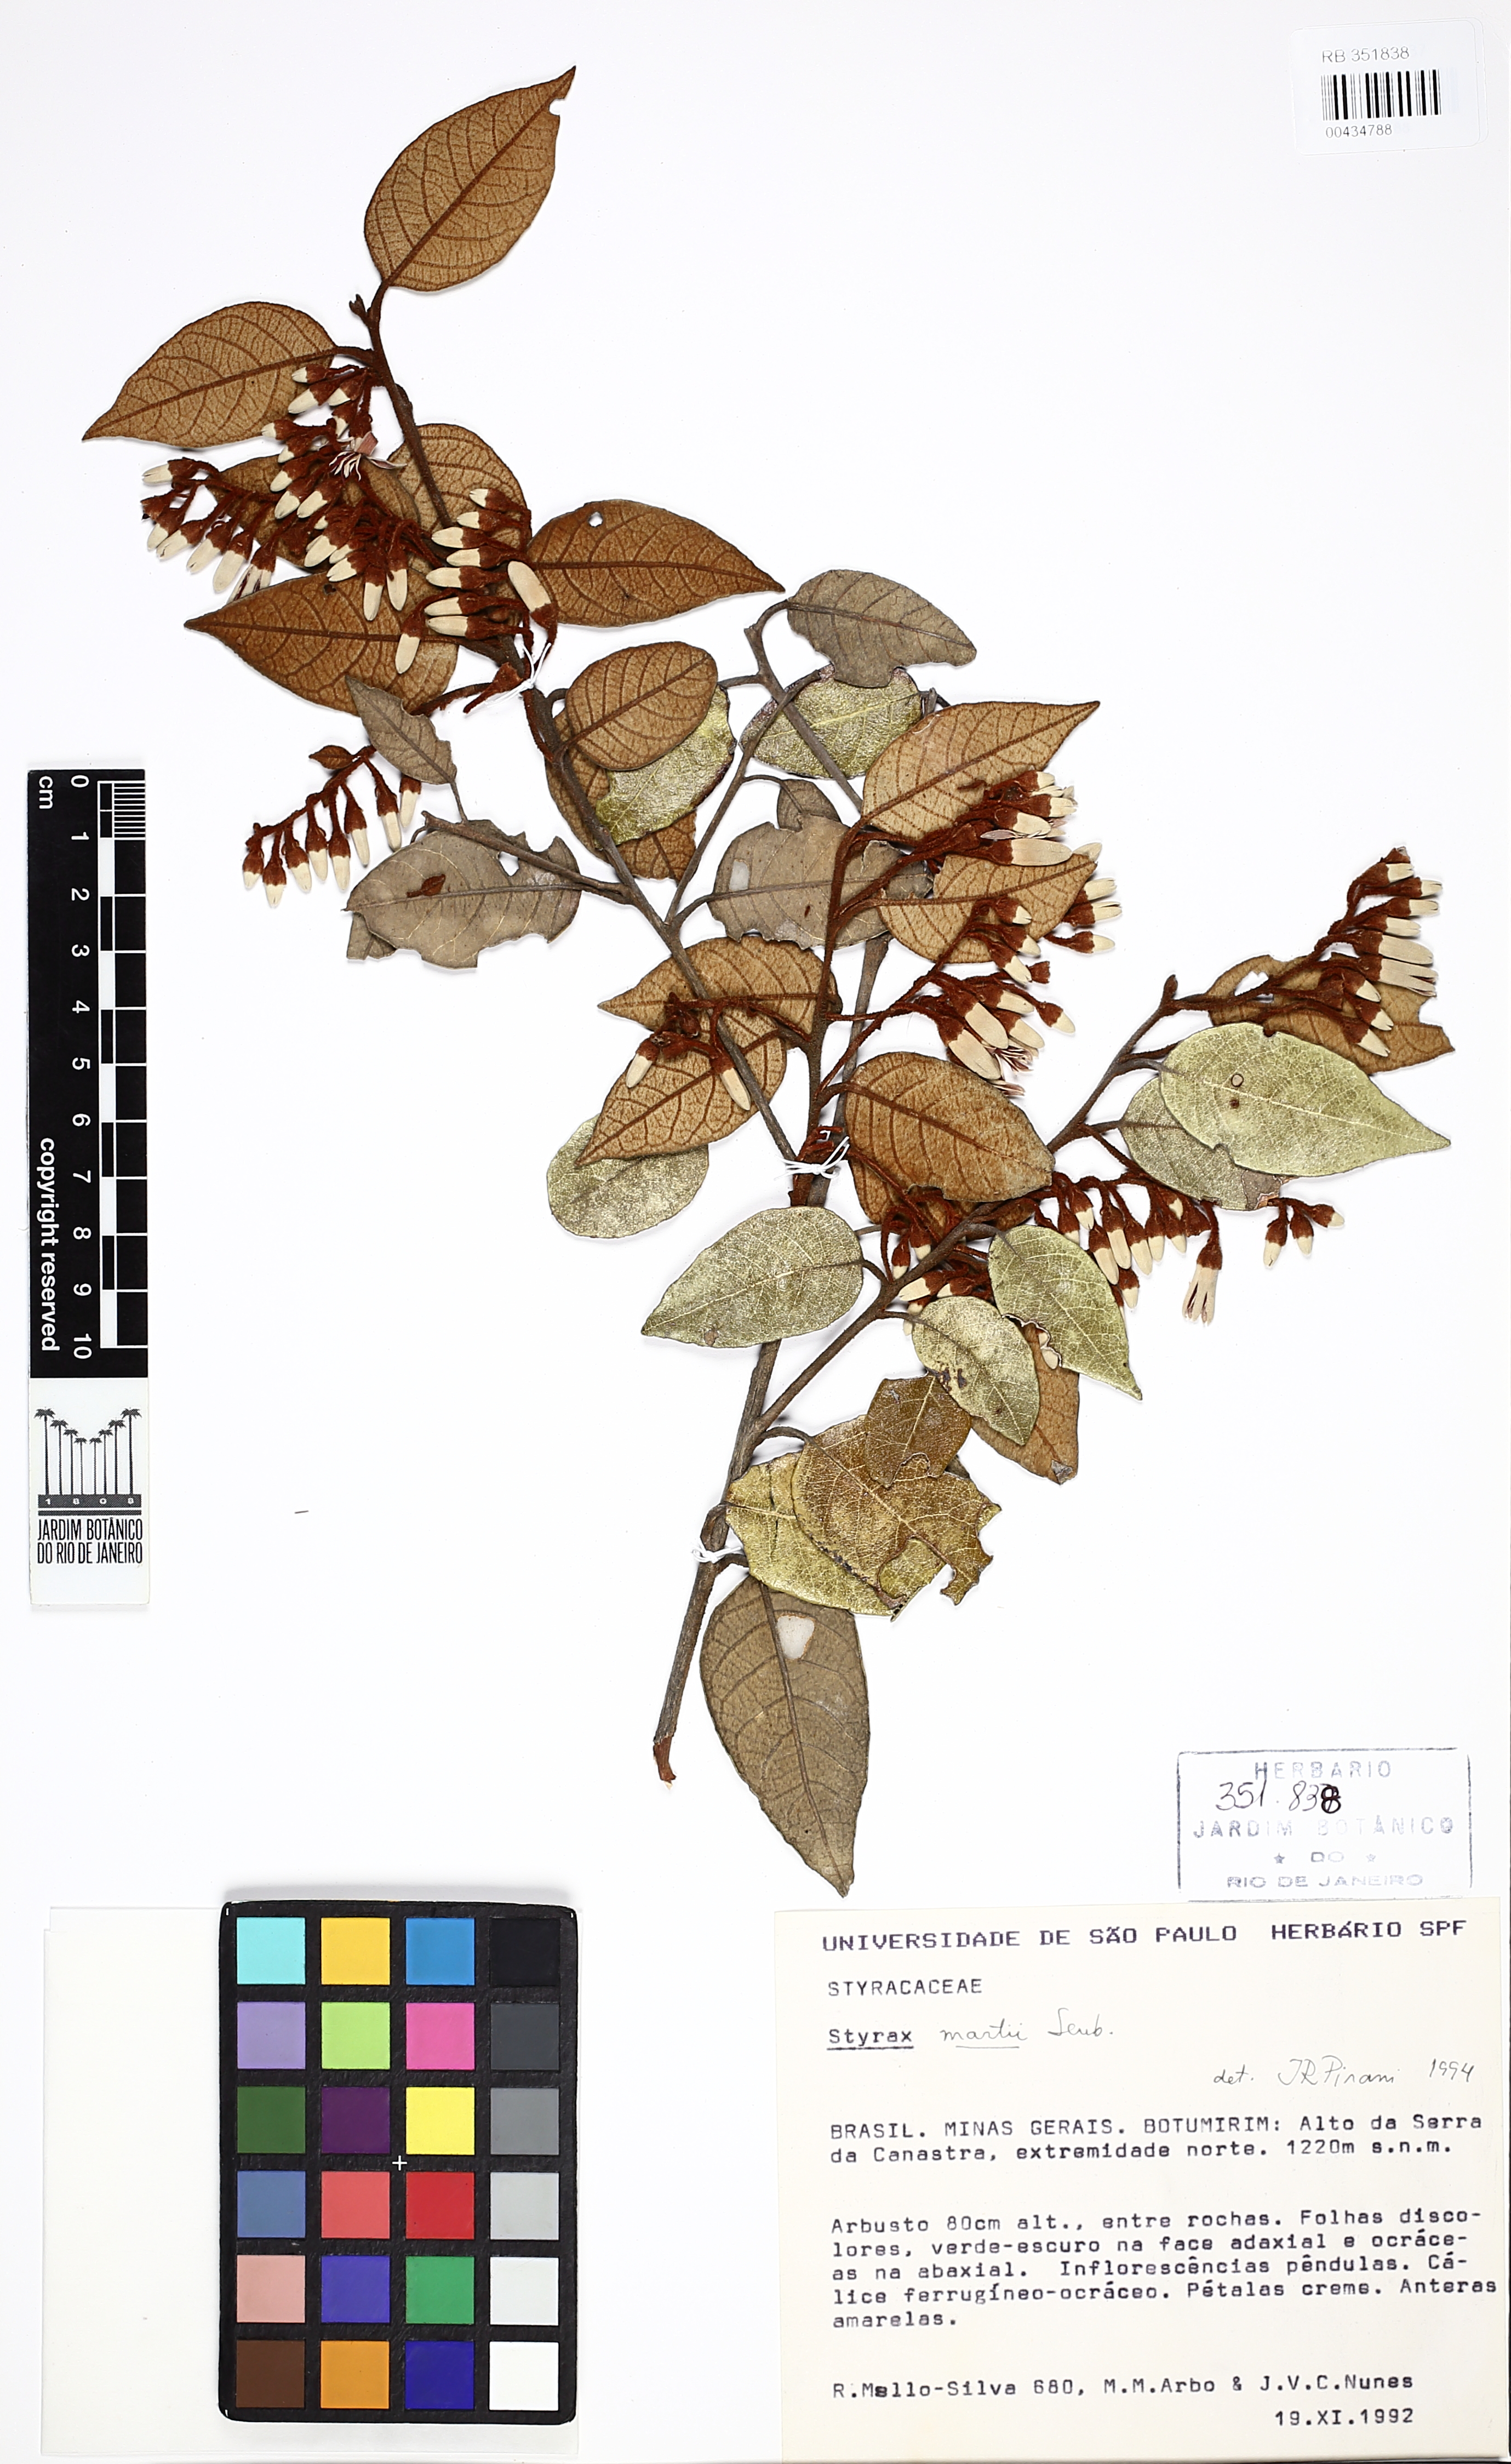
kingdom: Plantae
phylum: Tracheophyta
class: Magnoliopsida
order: Ericales
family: Styracaceae
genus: Styrax
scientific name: Styrax martii
